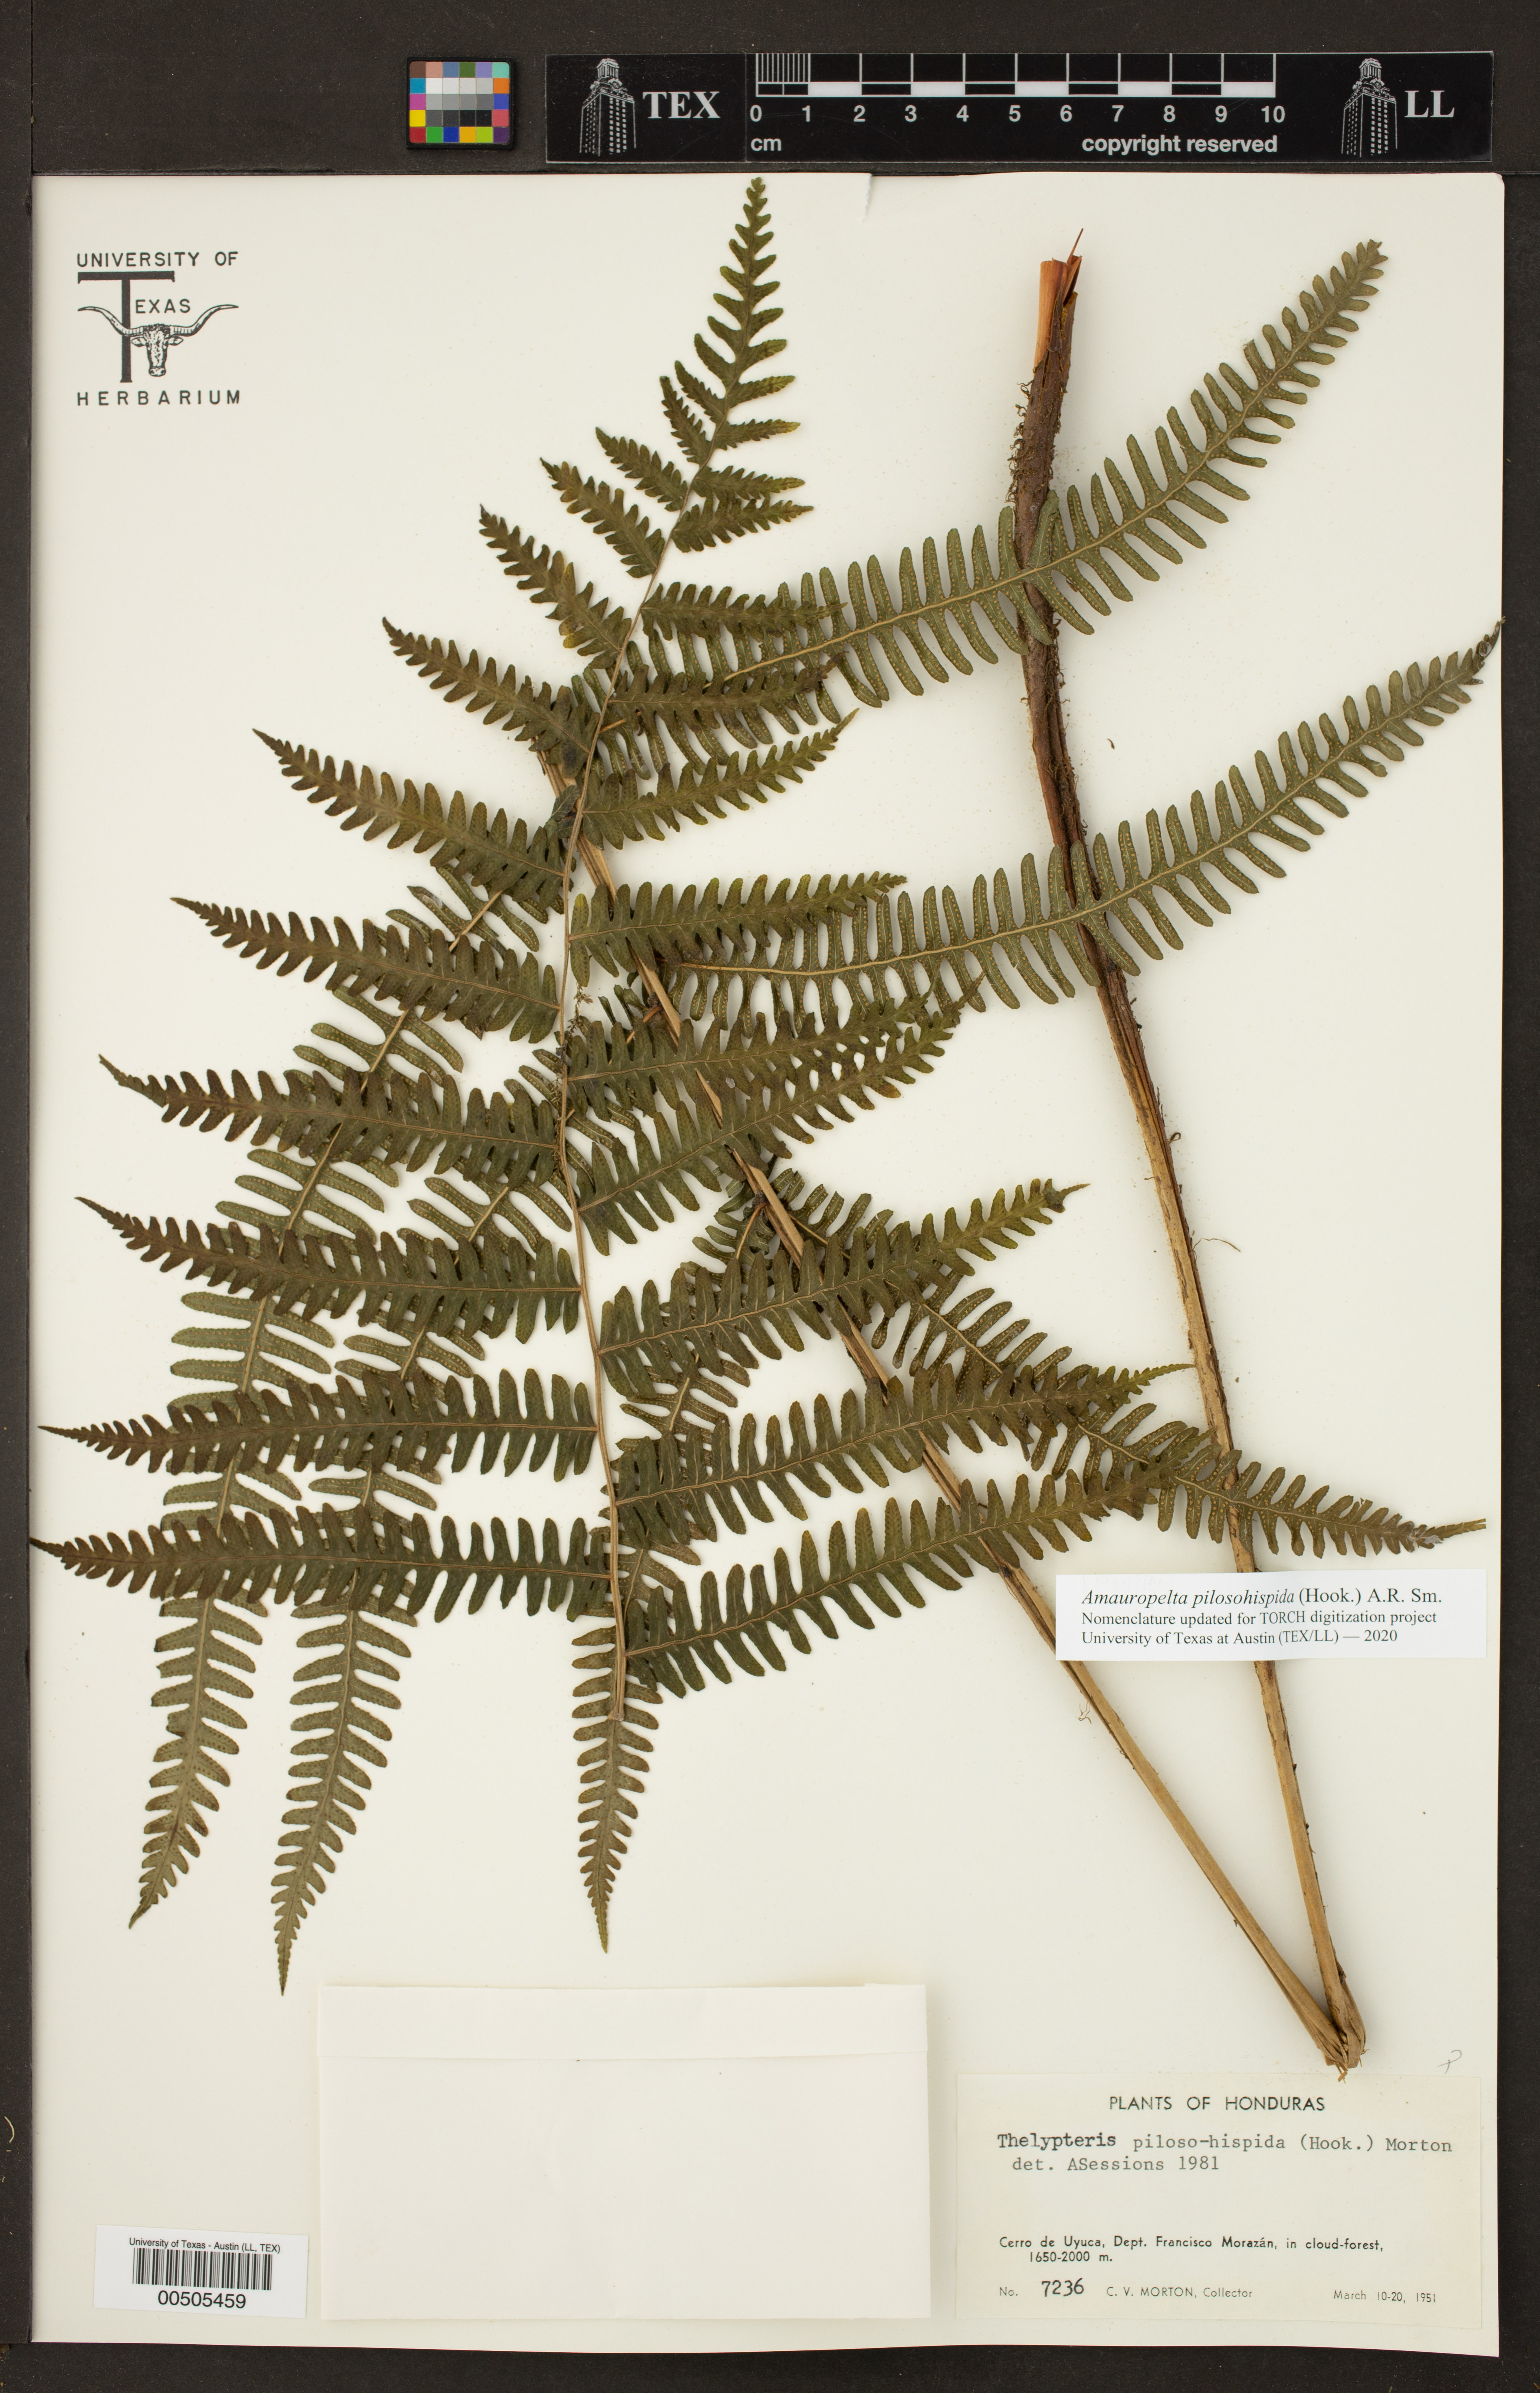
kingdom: Plantae
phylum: Tracheophyta
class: Polypodiopsida
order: Polypodiales
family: Thelypteridaceae
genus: Amauropelta
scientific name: Amauropelta pilosohispida
